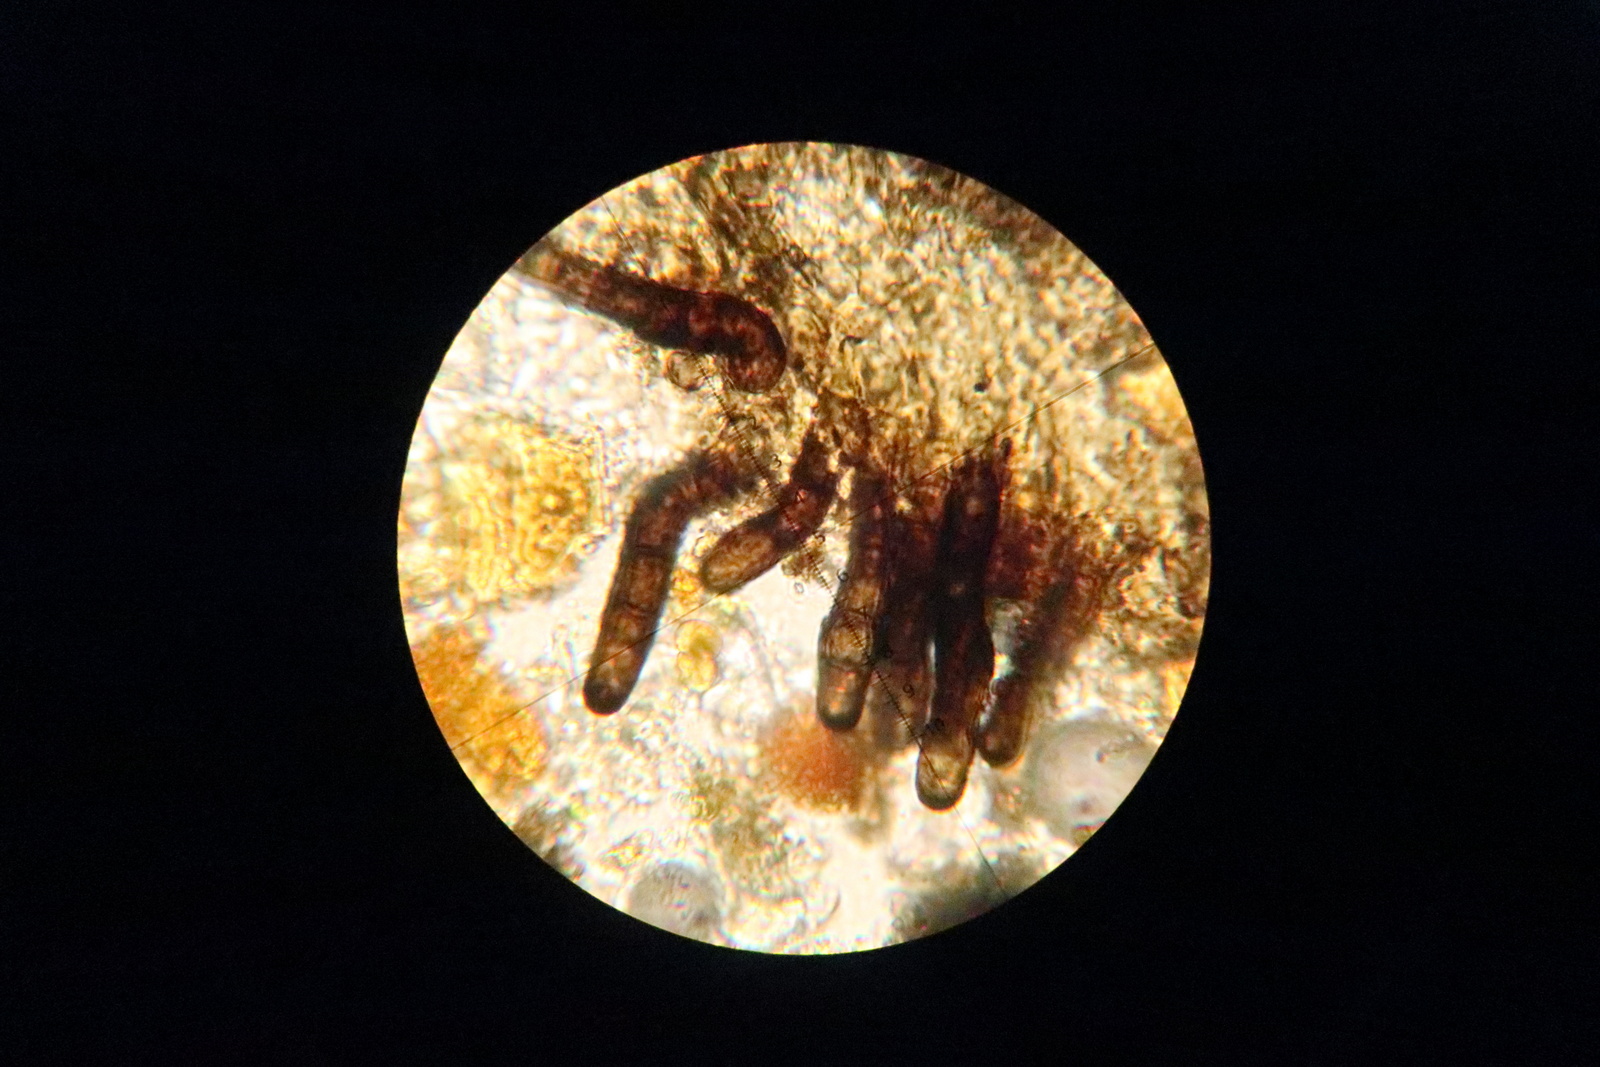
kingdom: Fungi
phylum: Ascomycota
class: Dothideomycetes
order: Pleosporales
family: Massarinaceae
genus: Helminthosporium
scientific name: Helminthosporium oligosporum
